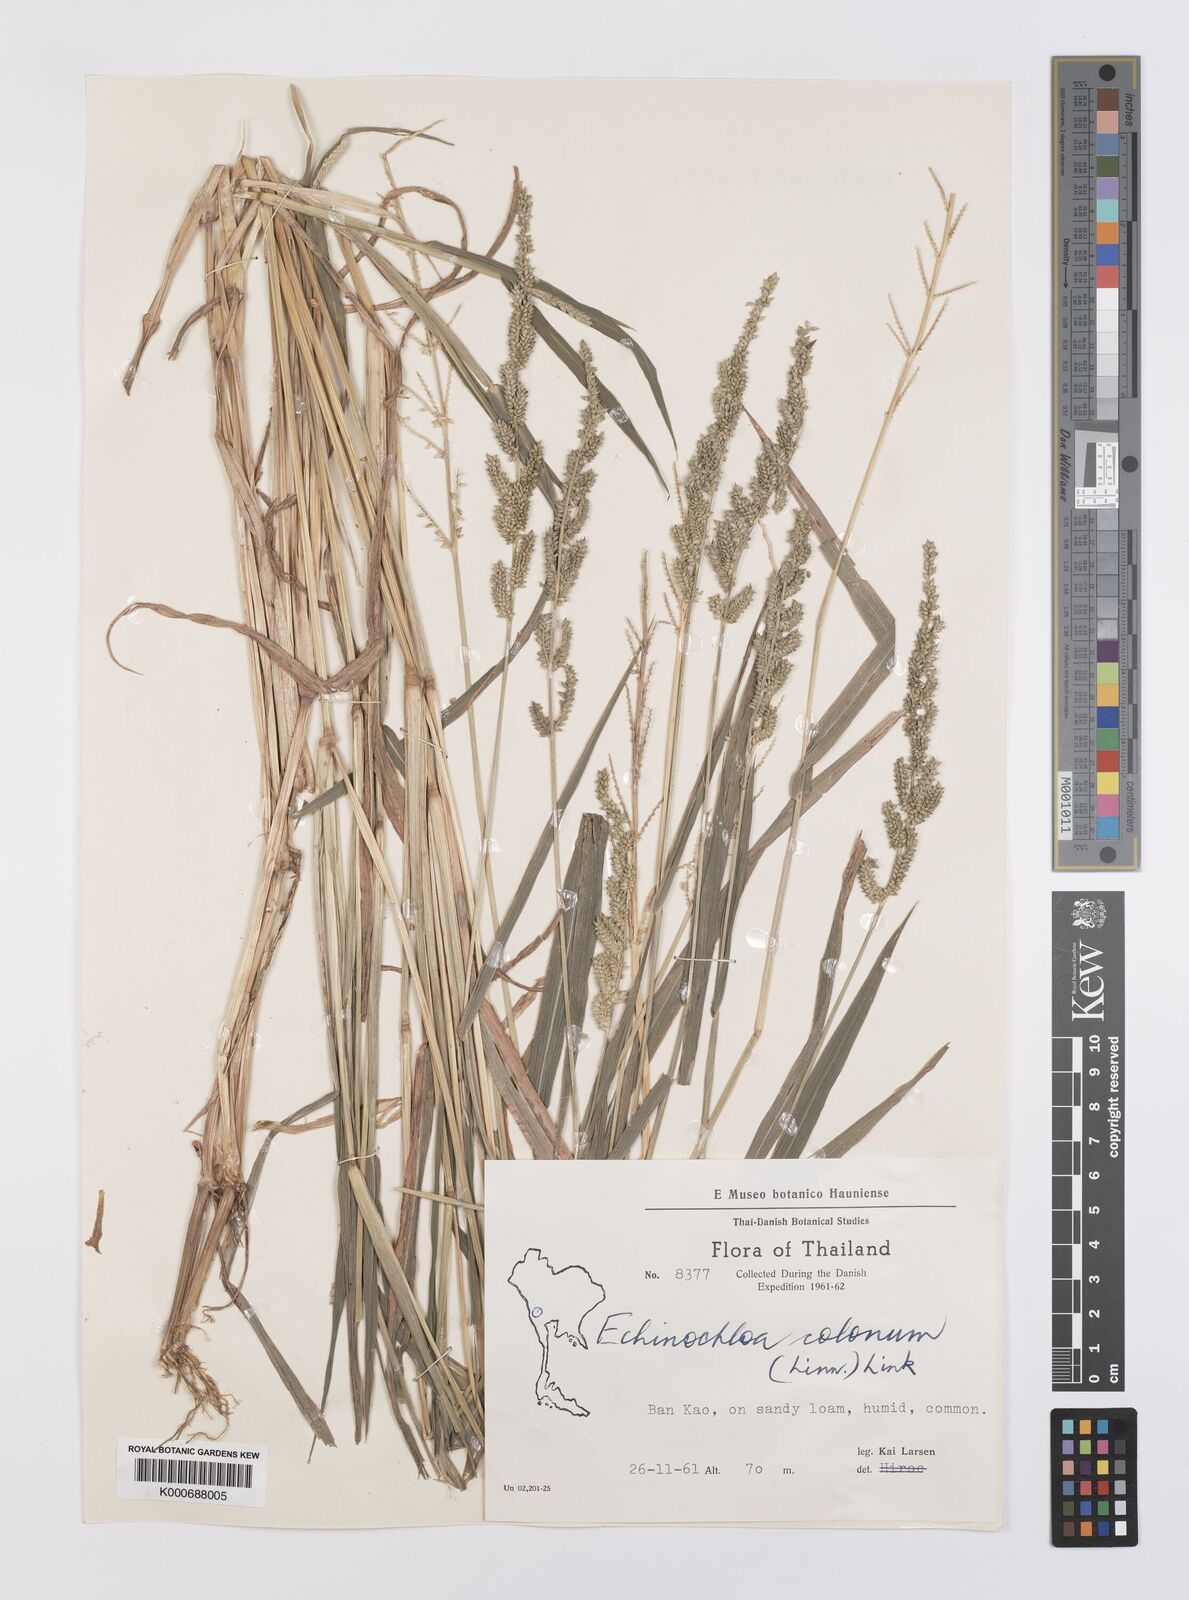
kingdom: Plantae
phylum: Tracheophyta
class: Liliopsida
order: Poales
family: Poaceae
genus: Echinochloa
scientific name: Echinochloa colonum
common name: Jungle rice
